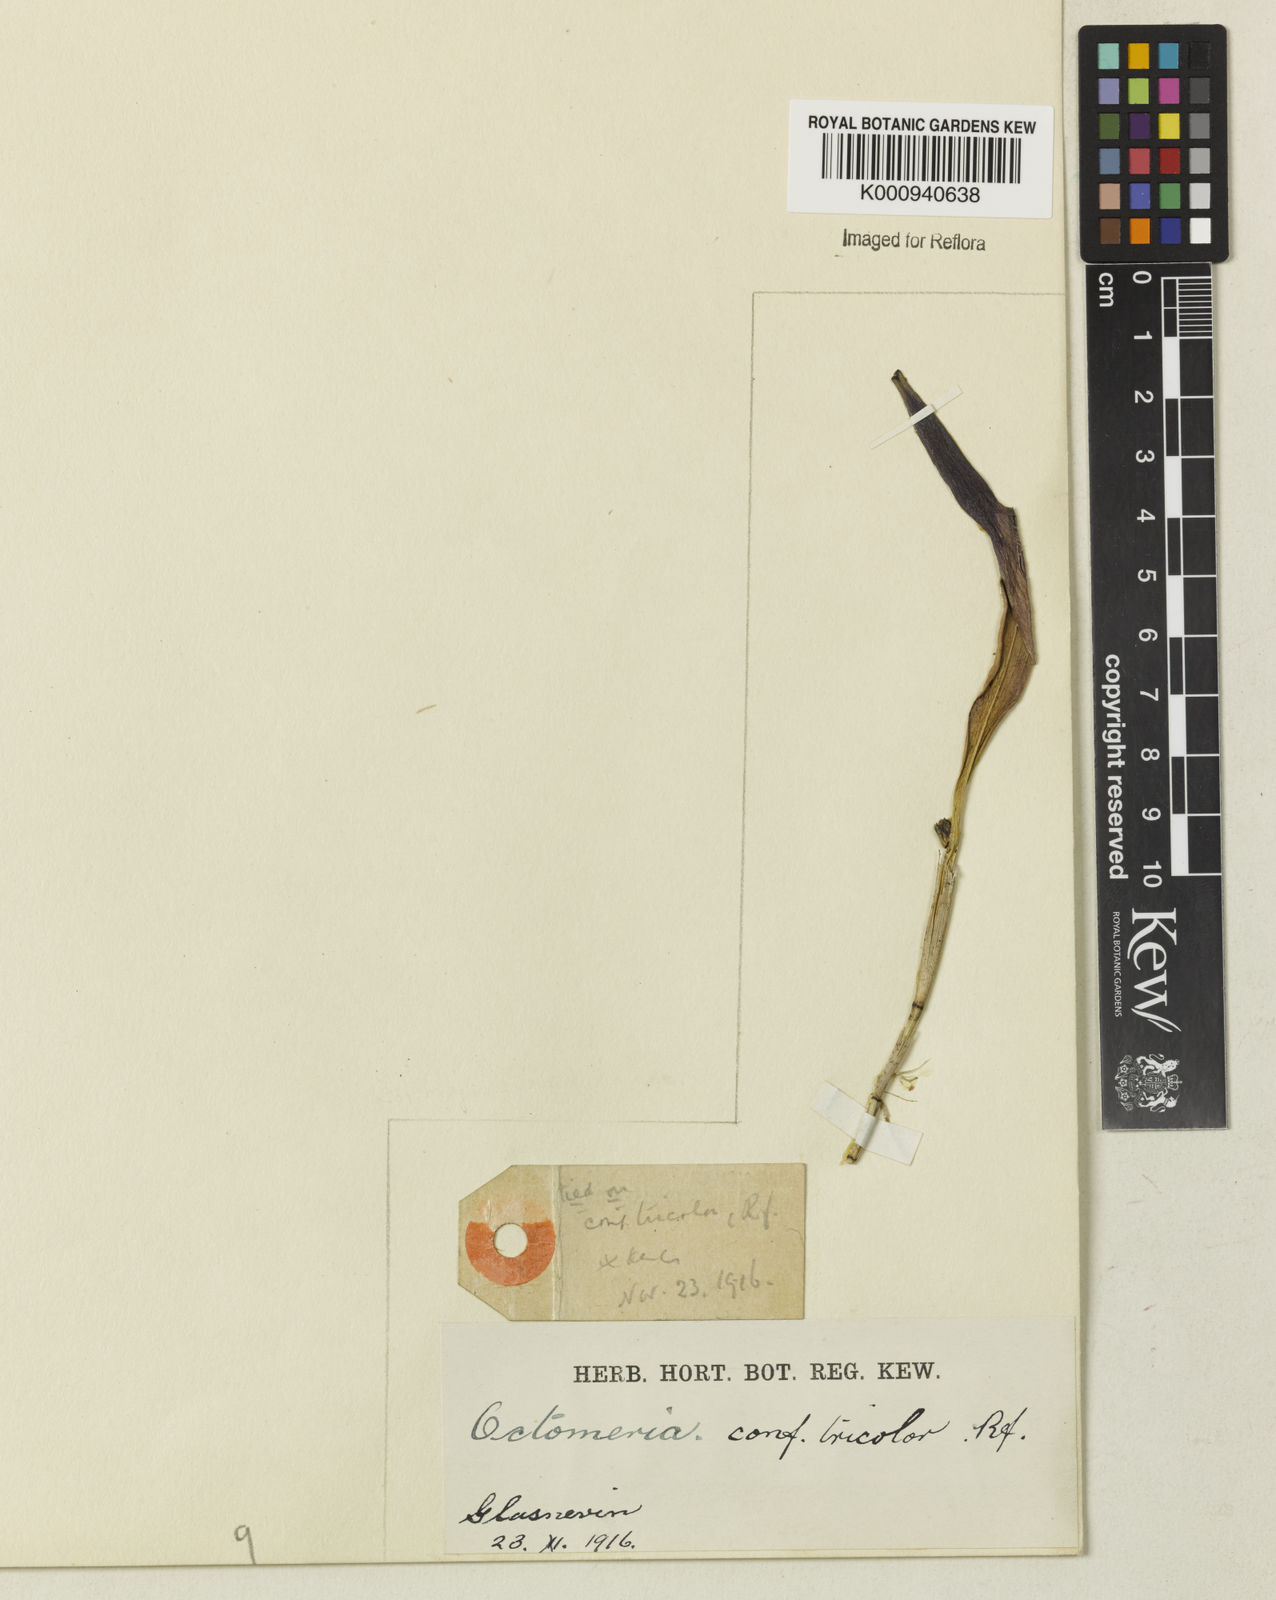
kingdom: Plantae
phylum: Tracheophyta
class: Liliopsida
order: Asparagales
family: Orchidaceae
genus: Octomeria
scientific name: Octomeria tricolor
